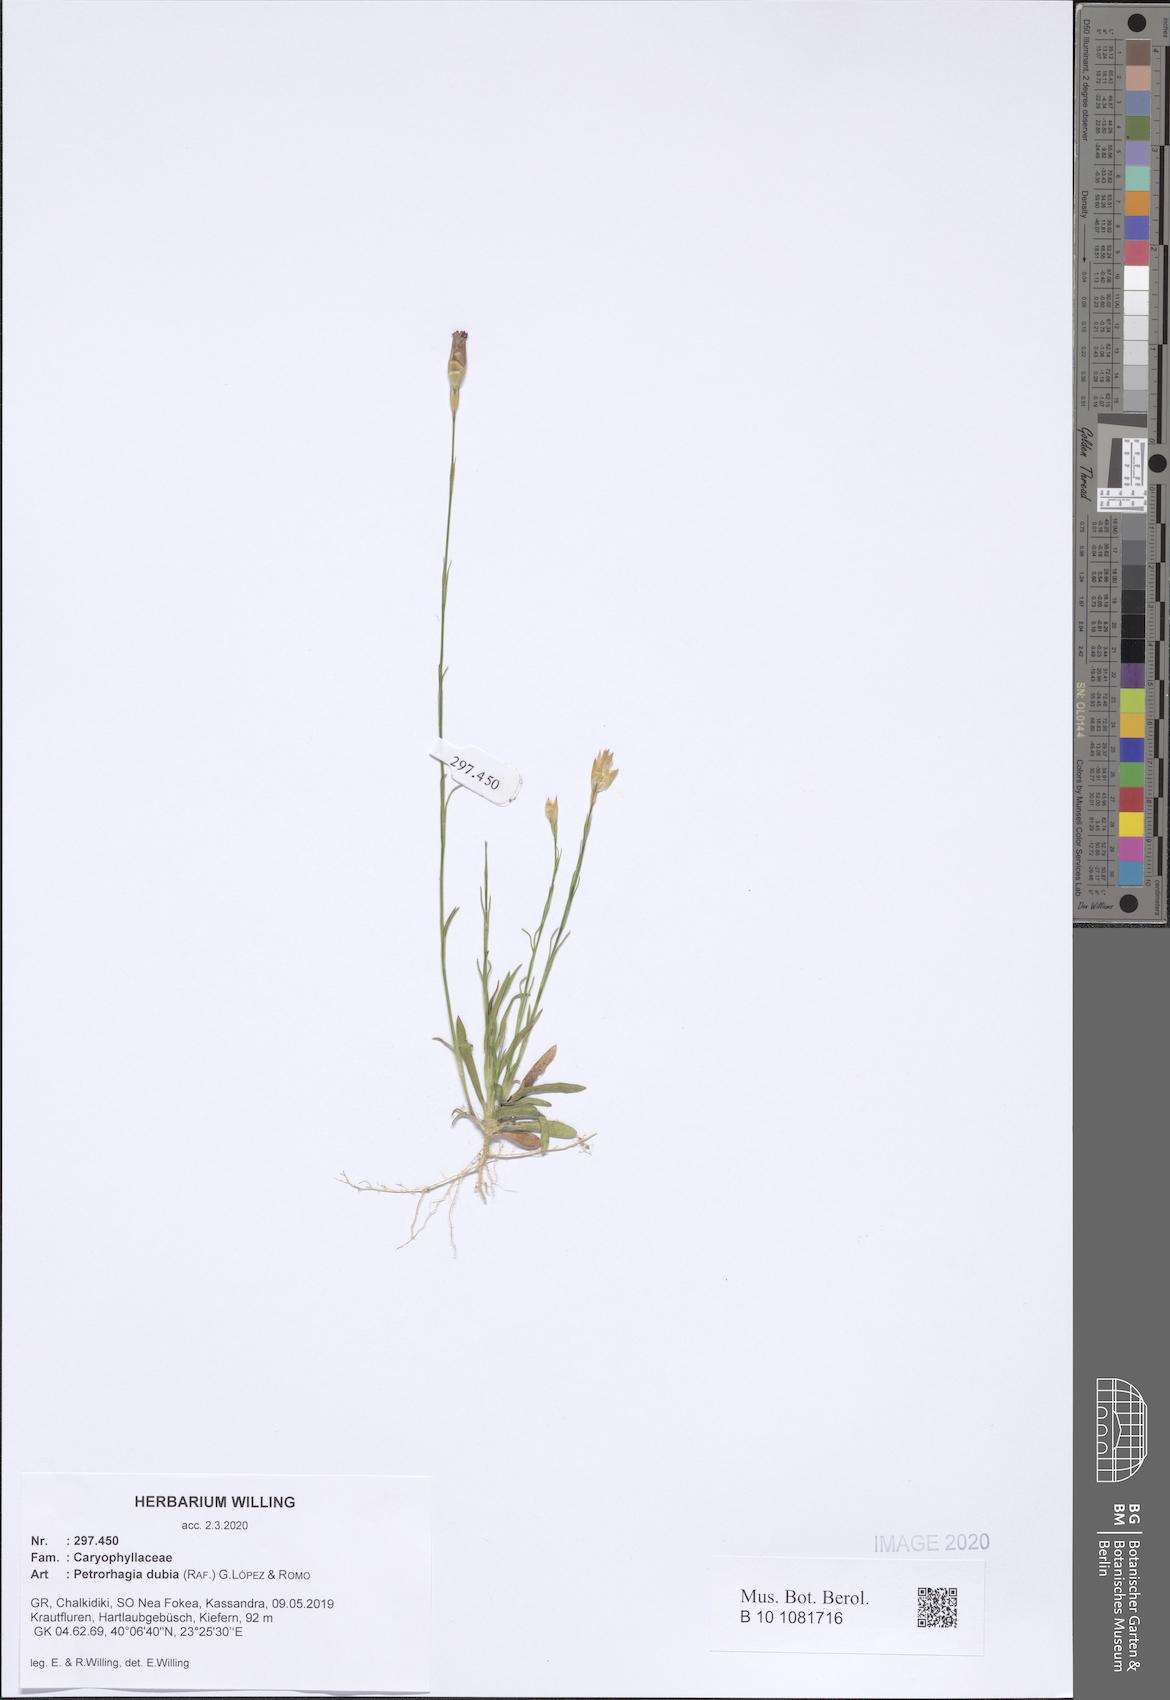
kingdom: Plantae
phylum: Tracheophyta
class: Magnoliopsida
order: Caryophyllales
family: Caryophyllaceae
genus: Petrorhagia
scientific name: Petrorhagia dubia
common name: Hairypink
